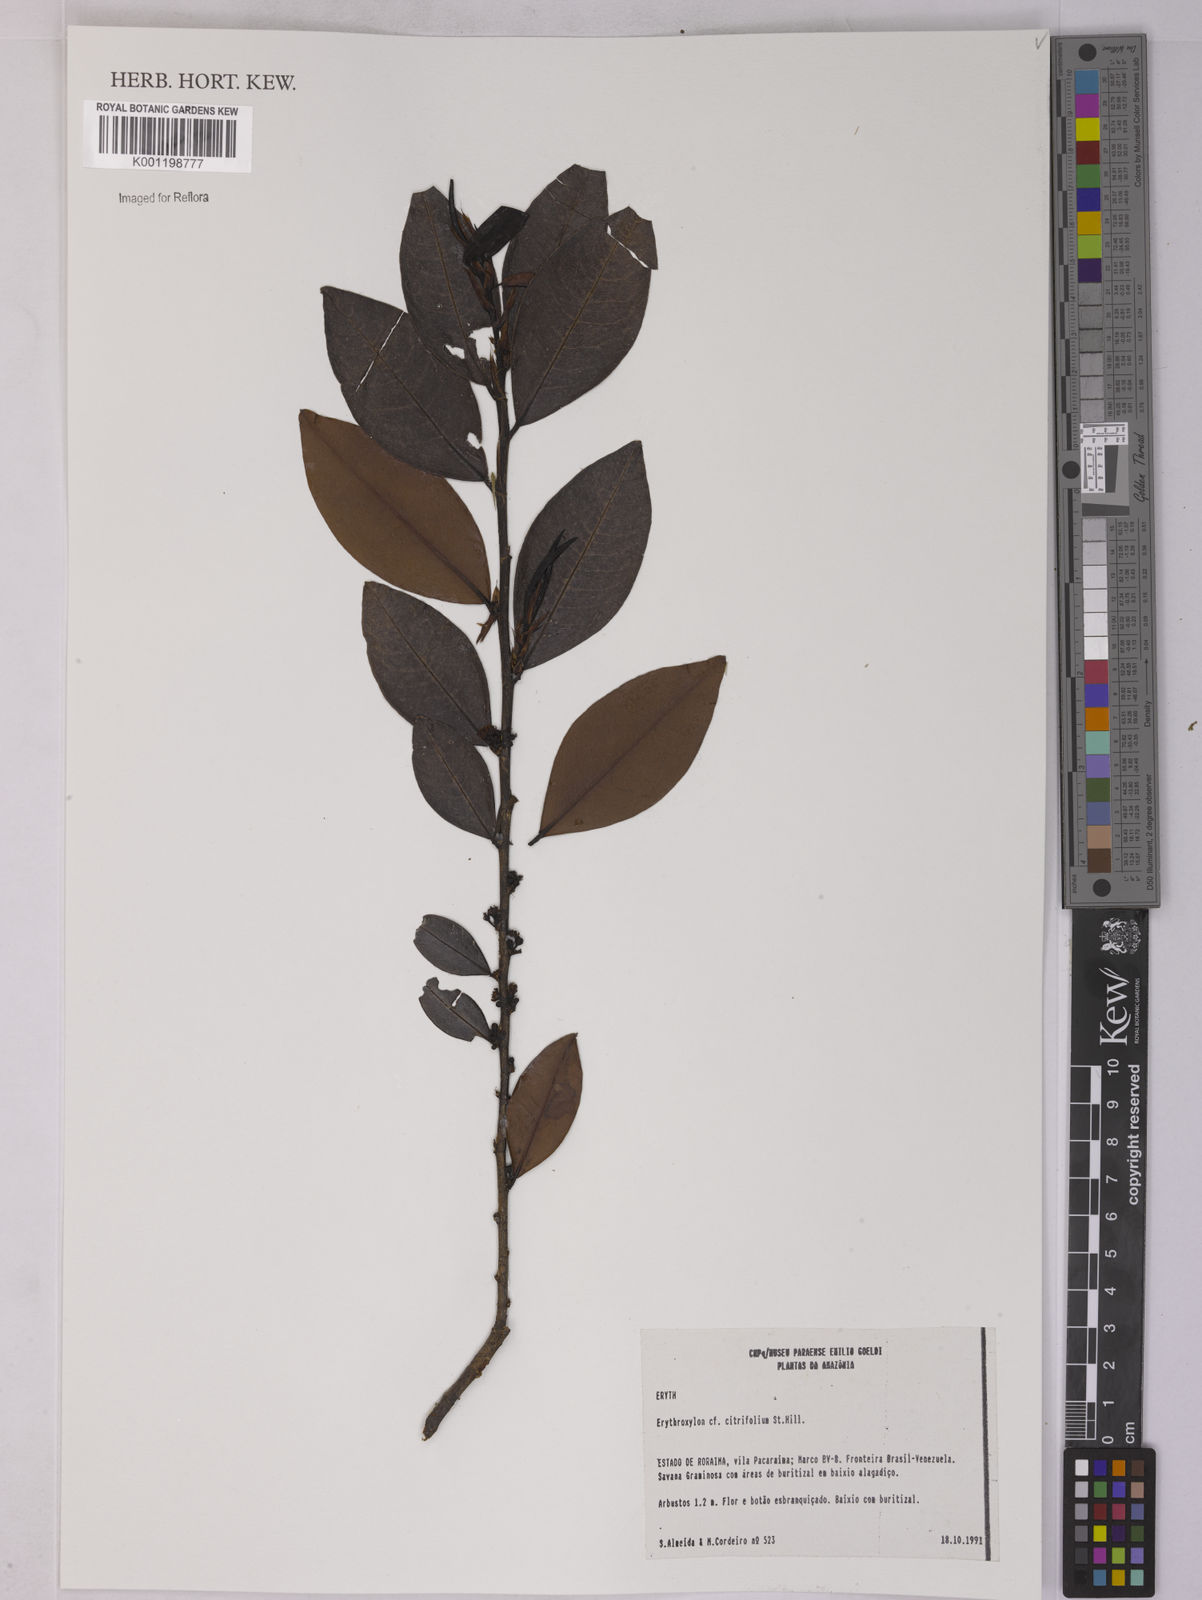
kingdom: Plantae
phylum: Tracheophyta
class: Magnoliopsida
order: Malpighiales
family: Erythroxylaceae
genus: Erythroxylum
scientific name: Erythroxylum citrifolium
